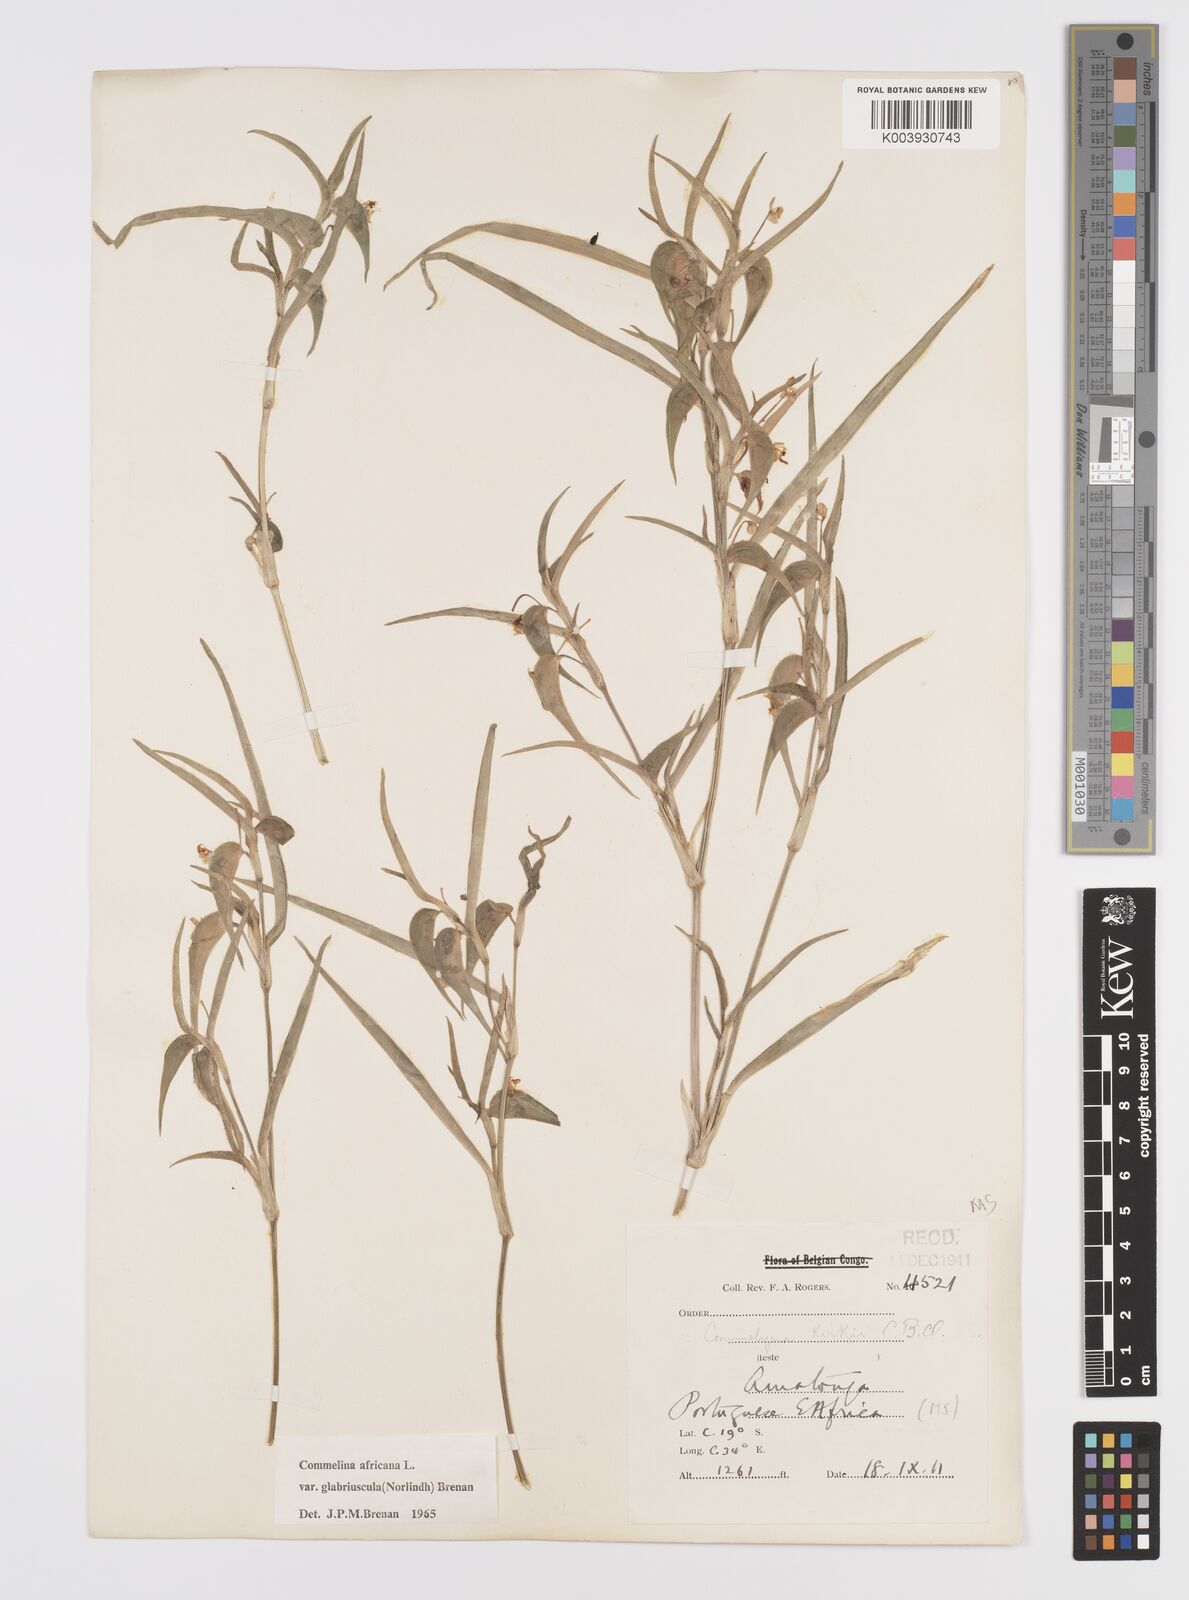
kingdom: Plantae
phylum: Tracheophyta
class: Liliopsida
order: Commelinales
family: Commelinaceae
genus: Commelina
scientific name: Commelina africana
